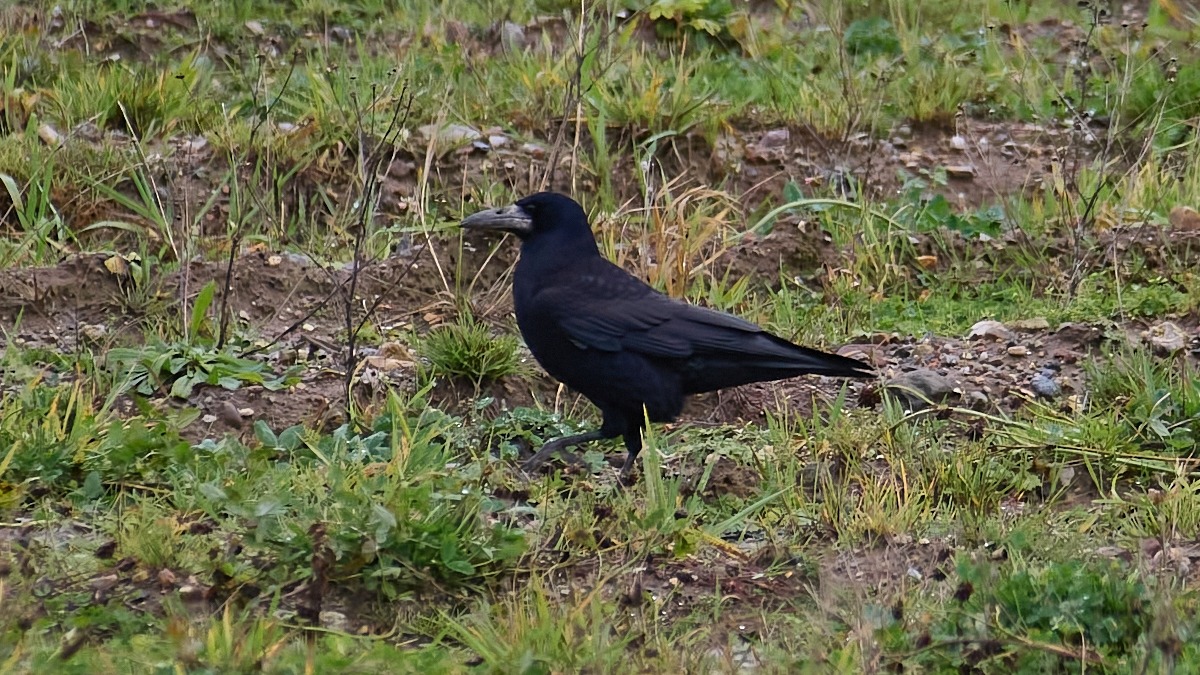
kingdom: Animalia
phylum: Chordata
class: Aves
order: Passeriformes
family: Corvidae
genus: Corvus
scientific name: Corvus frugilegus
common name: Råge
